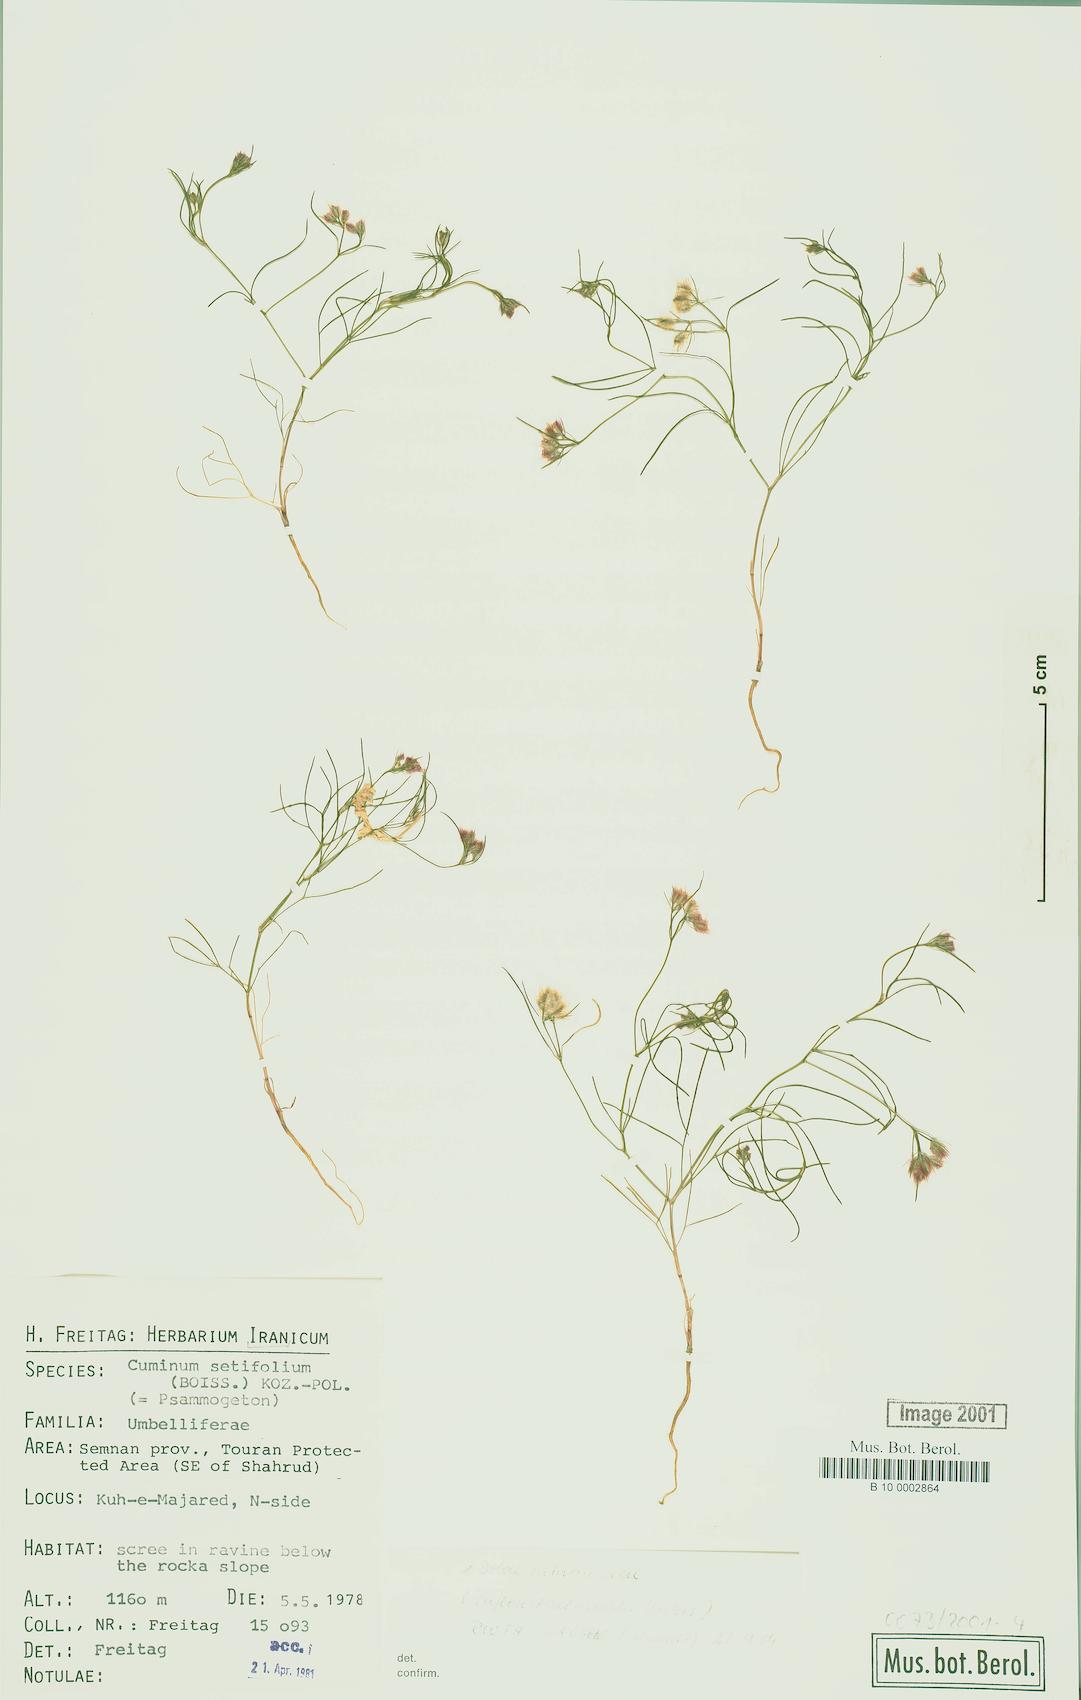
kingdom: Plantae
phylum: Tracheophyta
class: Magnoliopsida
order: Apiales
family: Apiaceae
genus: Cuminum
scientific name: Cuminum setifolium
